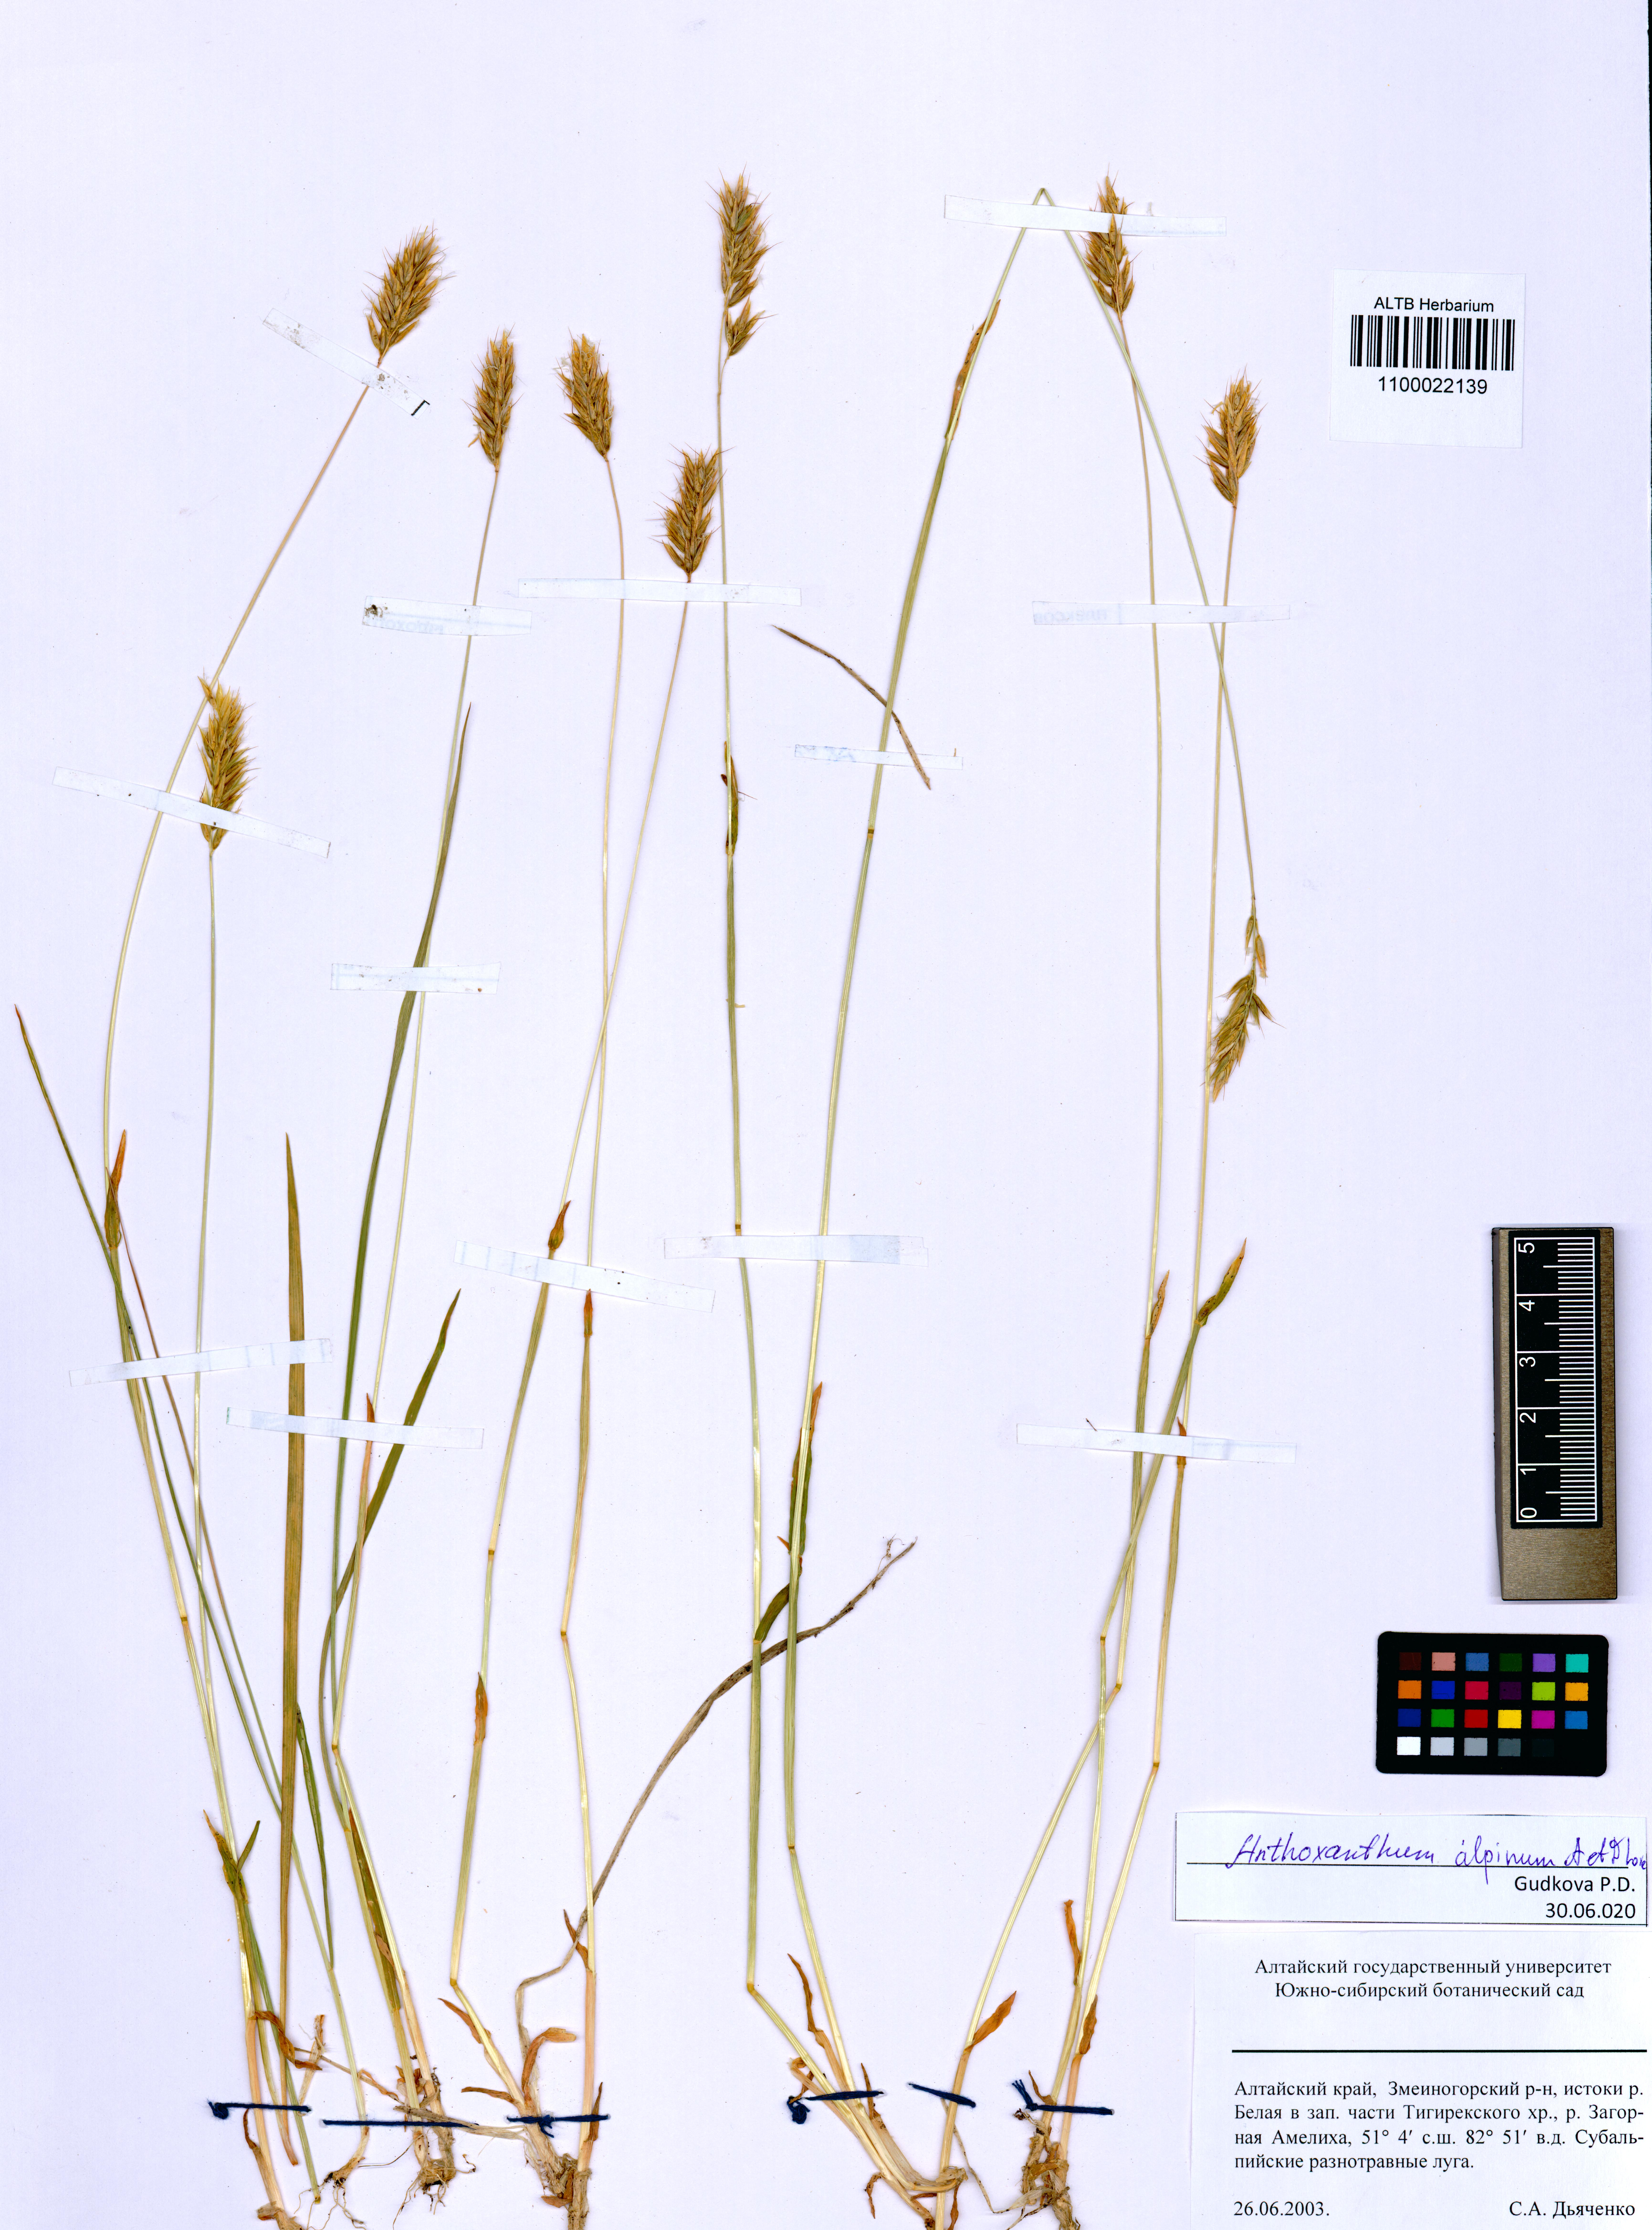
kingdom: Plantae
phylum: Tracheophyta
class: Liliopsida
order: Poales
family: Poaceae
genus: Anthoxanthum
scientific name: Anthoxanthum nipponicum
